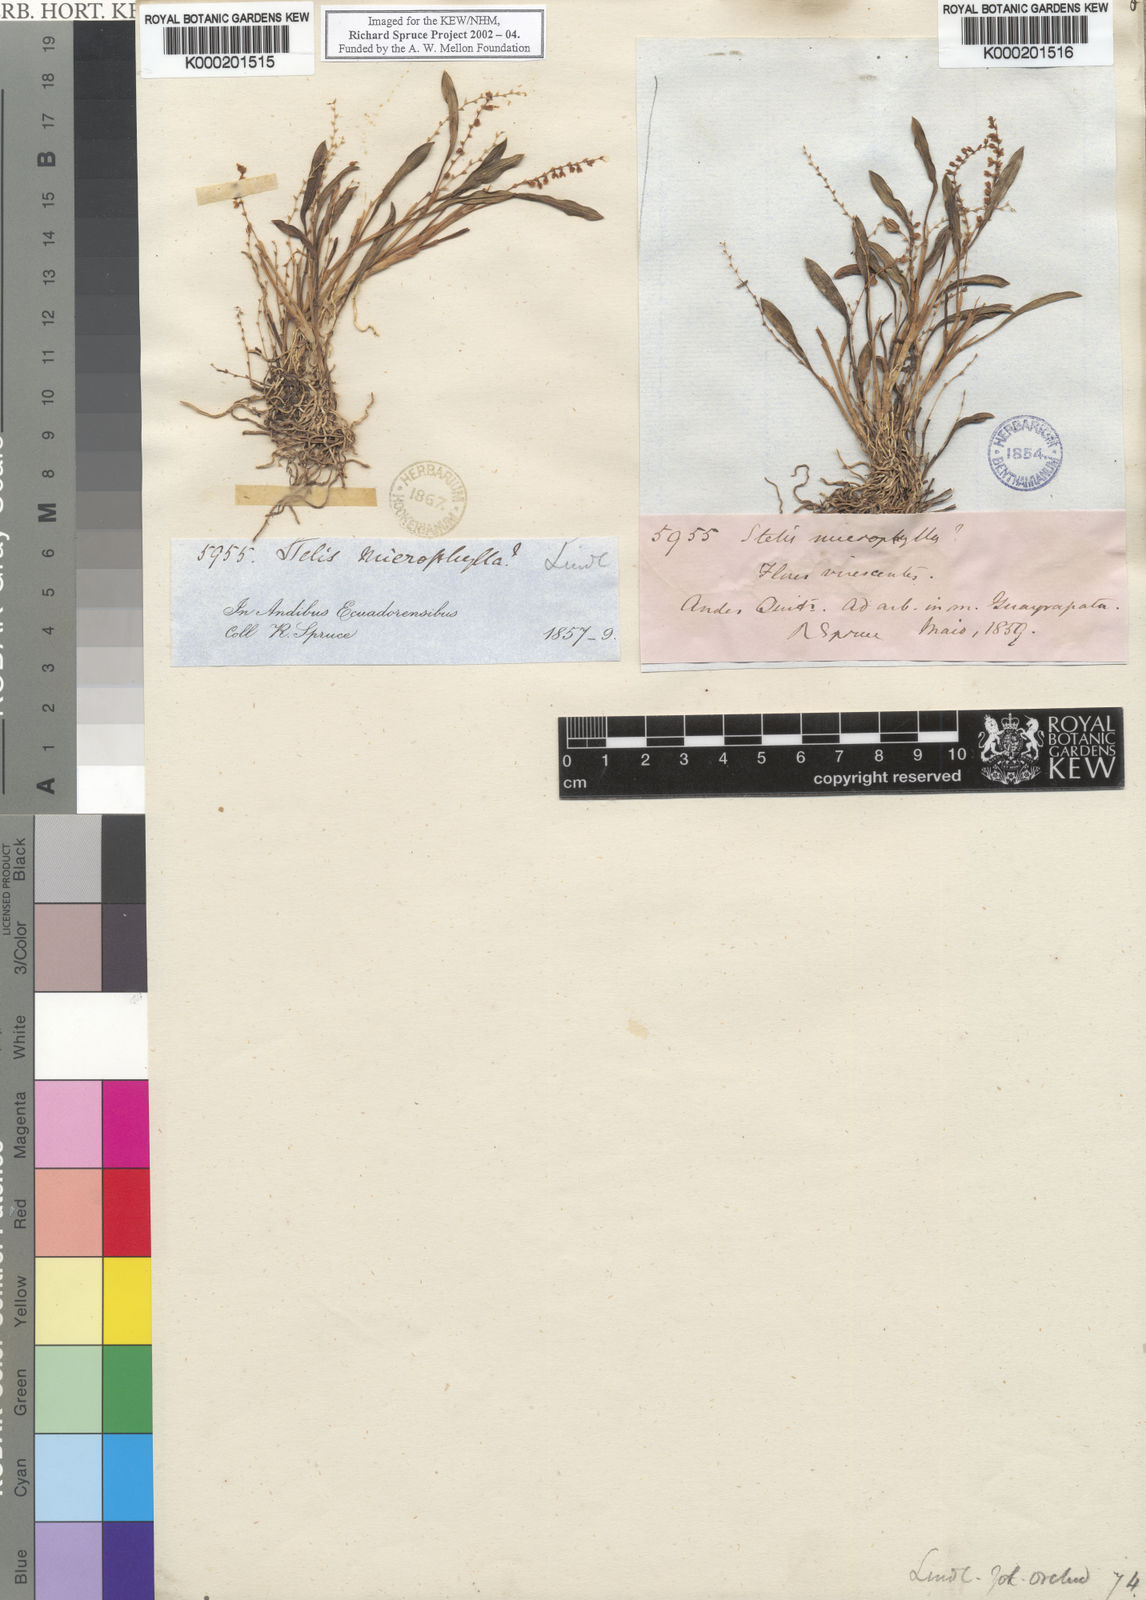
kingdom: Plantae
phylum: Tracheophyta
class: Liliopsida
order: Asparagales
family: Orchidaceae
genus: Stelis
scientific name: Stelis pusilla
